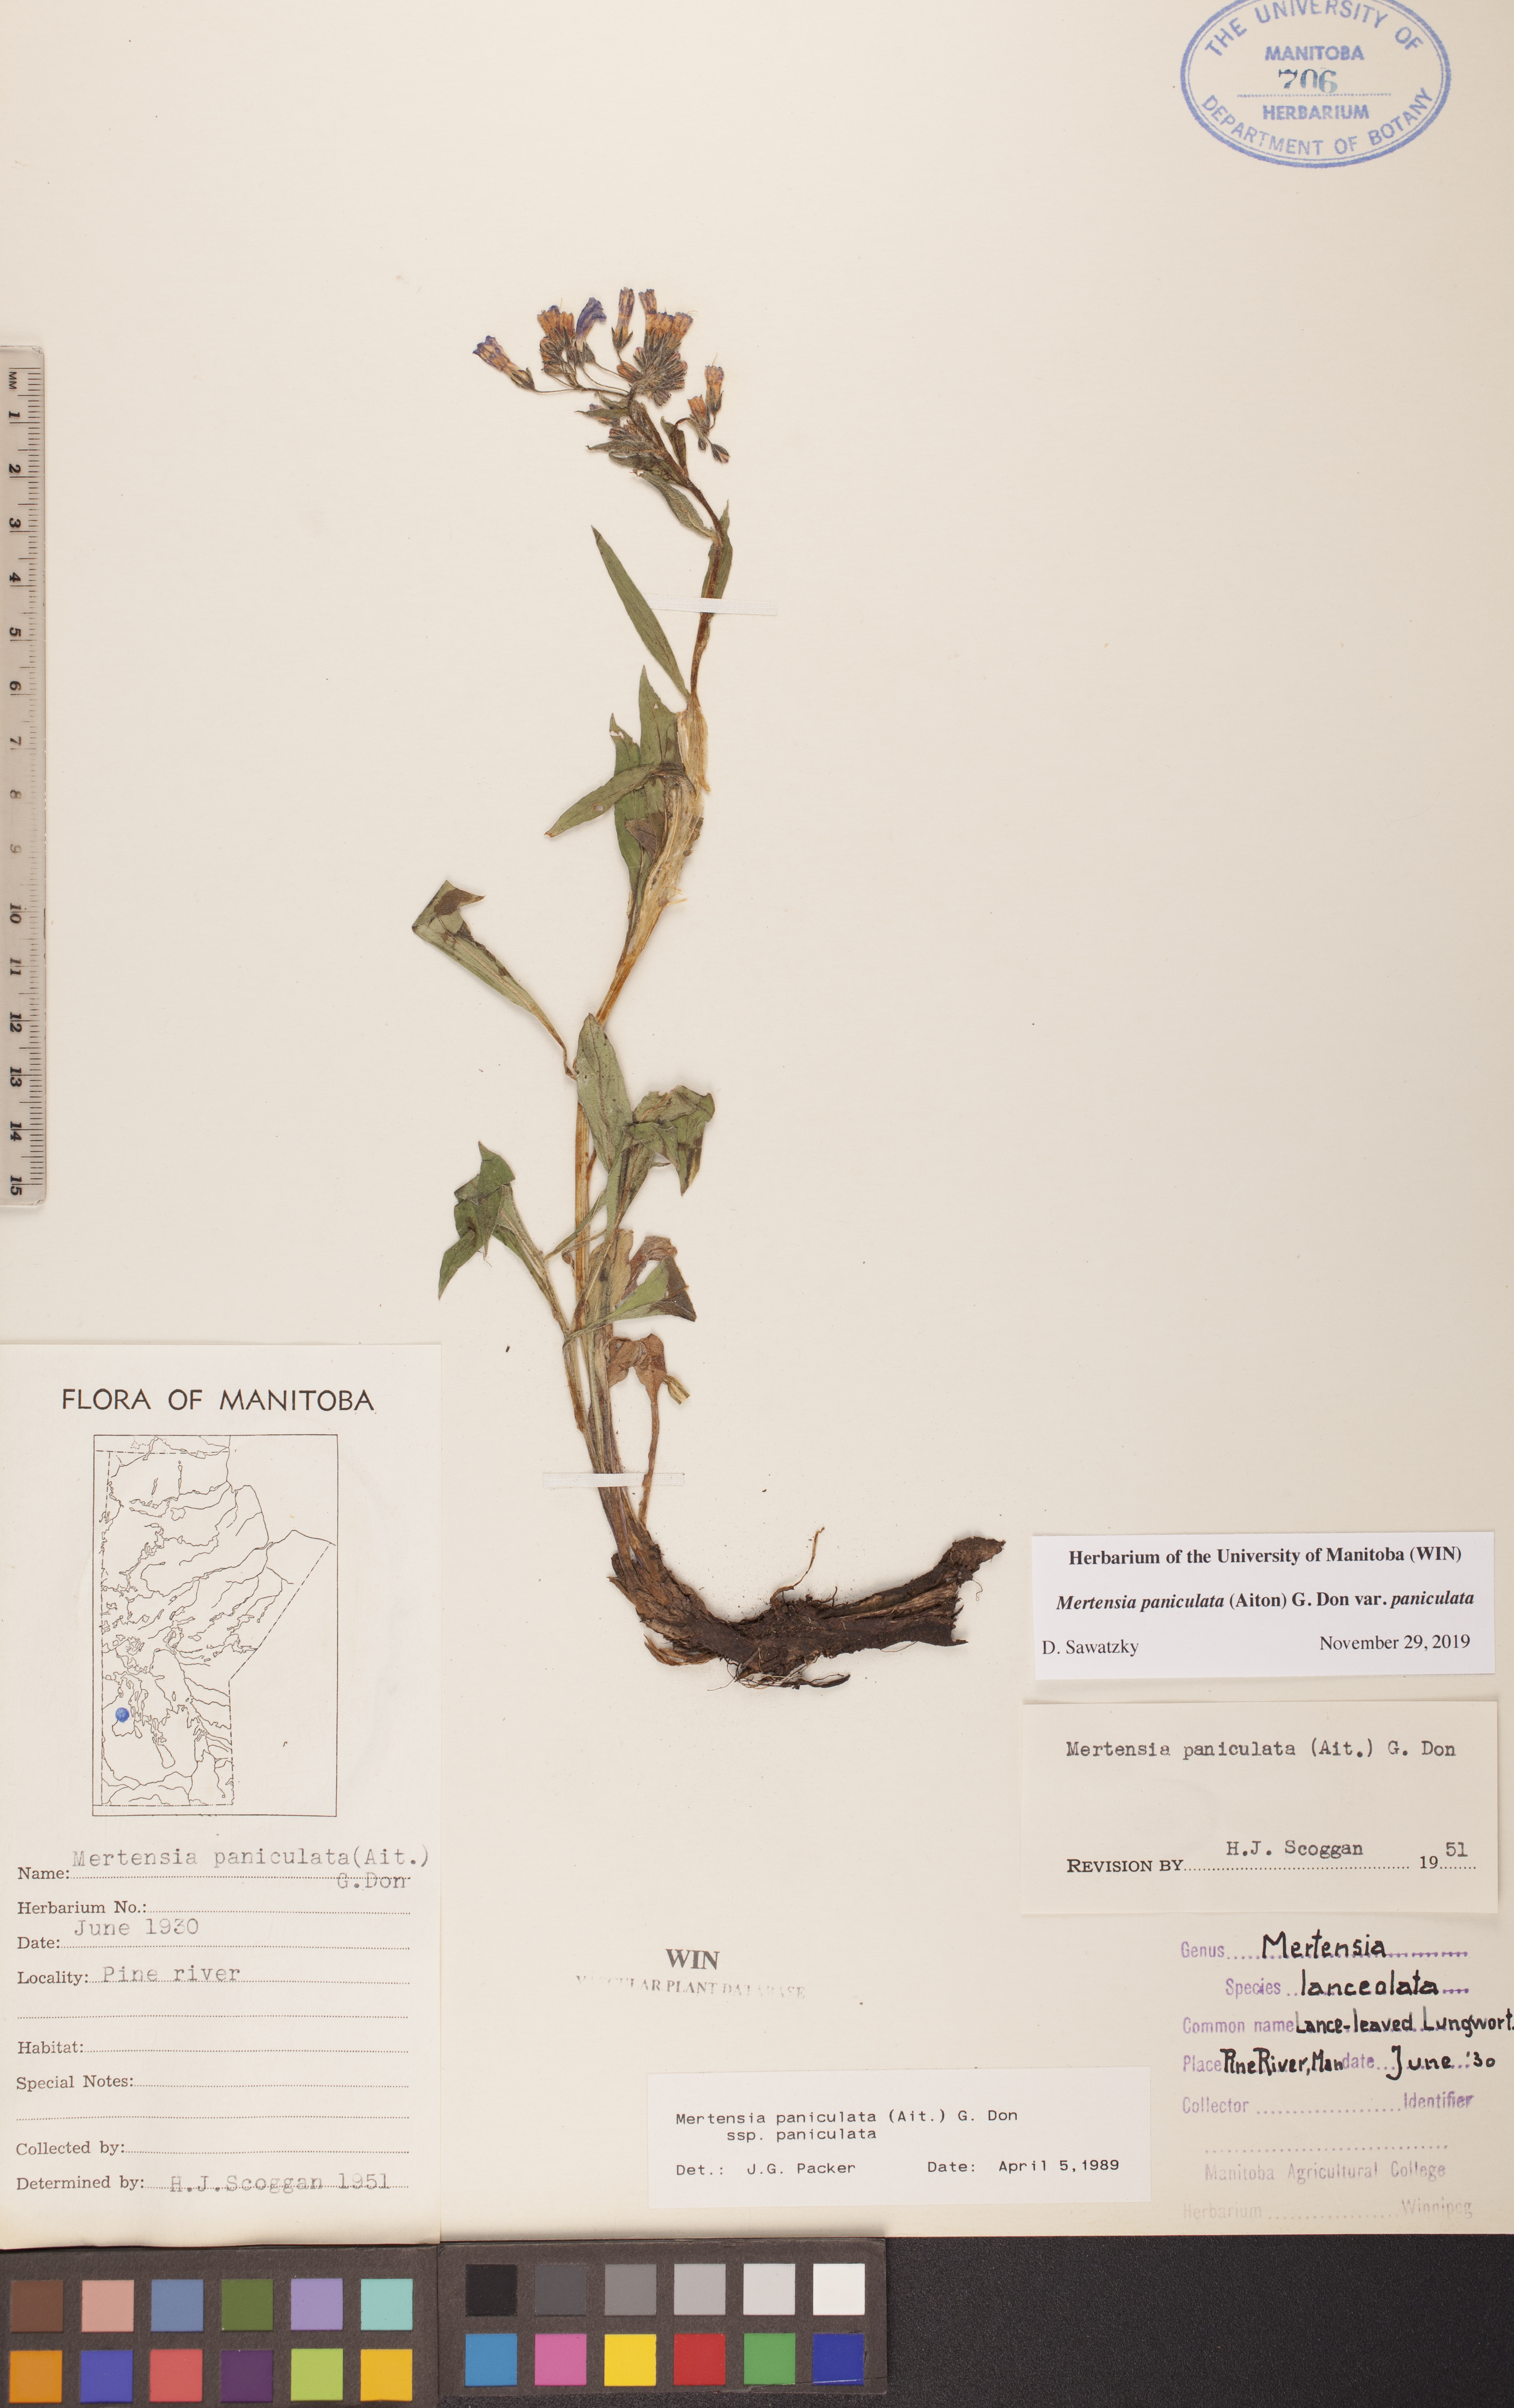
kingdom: Plantae
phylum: Tracheophyta
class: Magnoliopsida
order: Boraginales
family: Boraginaceae
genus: Mertensia
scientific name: Mertensia paniculata
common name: Panicled bluebells
